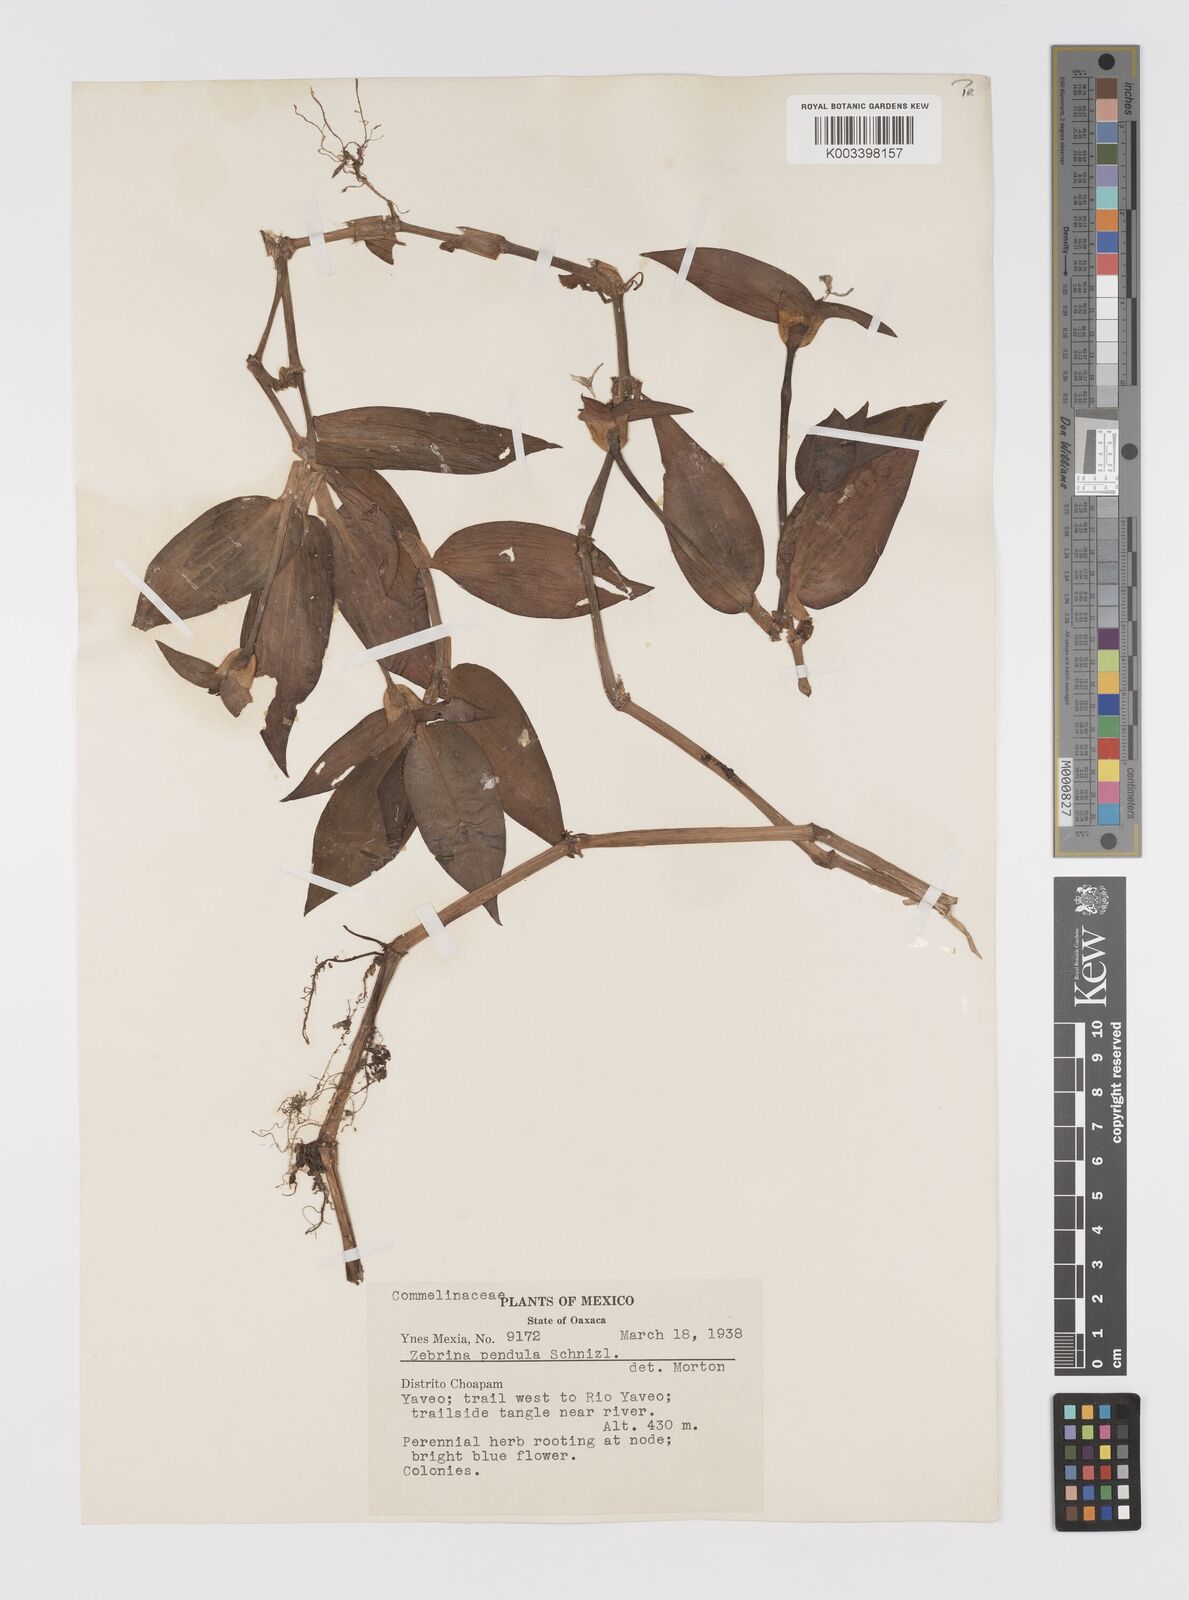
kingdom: Plantae
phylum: Tracheophyta
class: Liliopsida
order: Commelinales
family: Commelinaceae
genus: Tradescantia
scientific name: Tradescantia zebrina
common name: Inchplant
